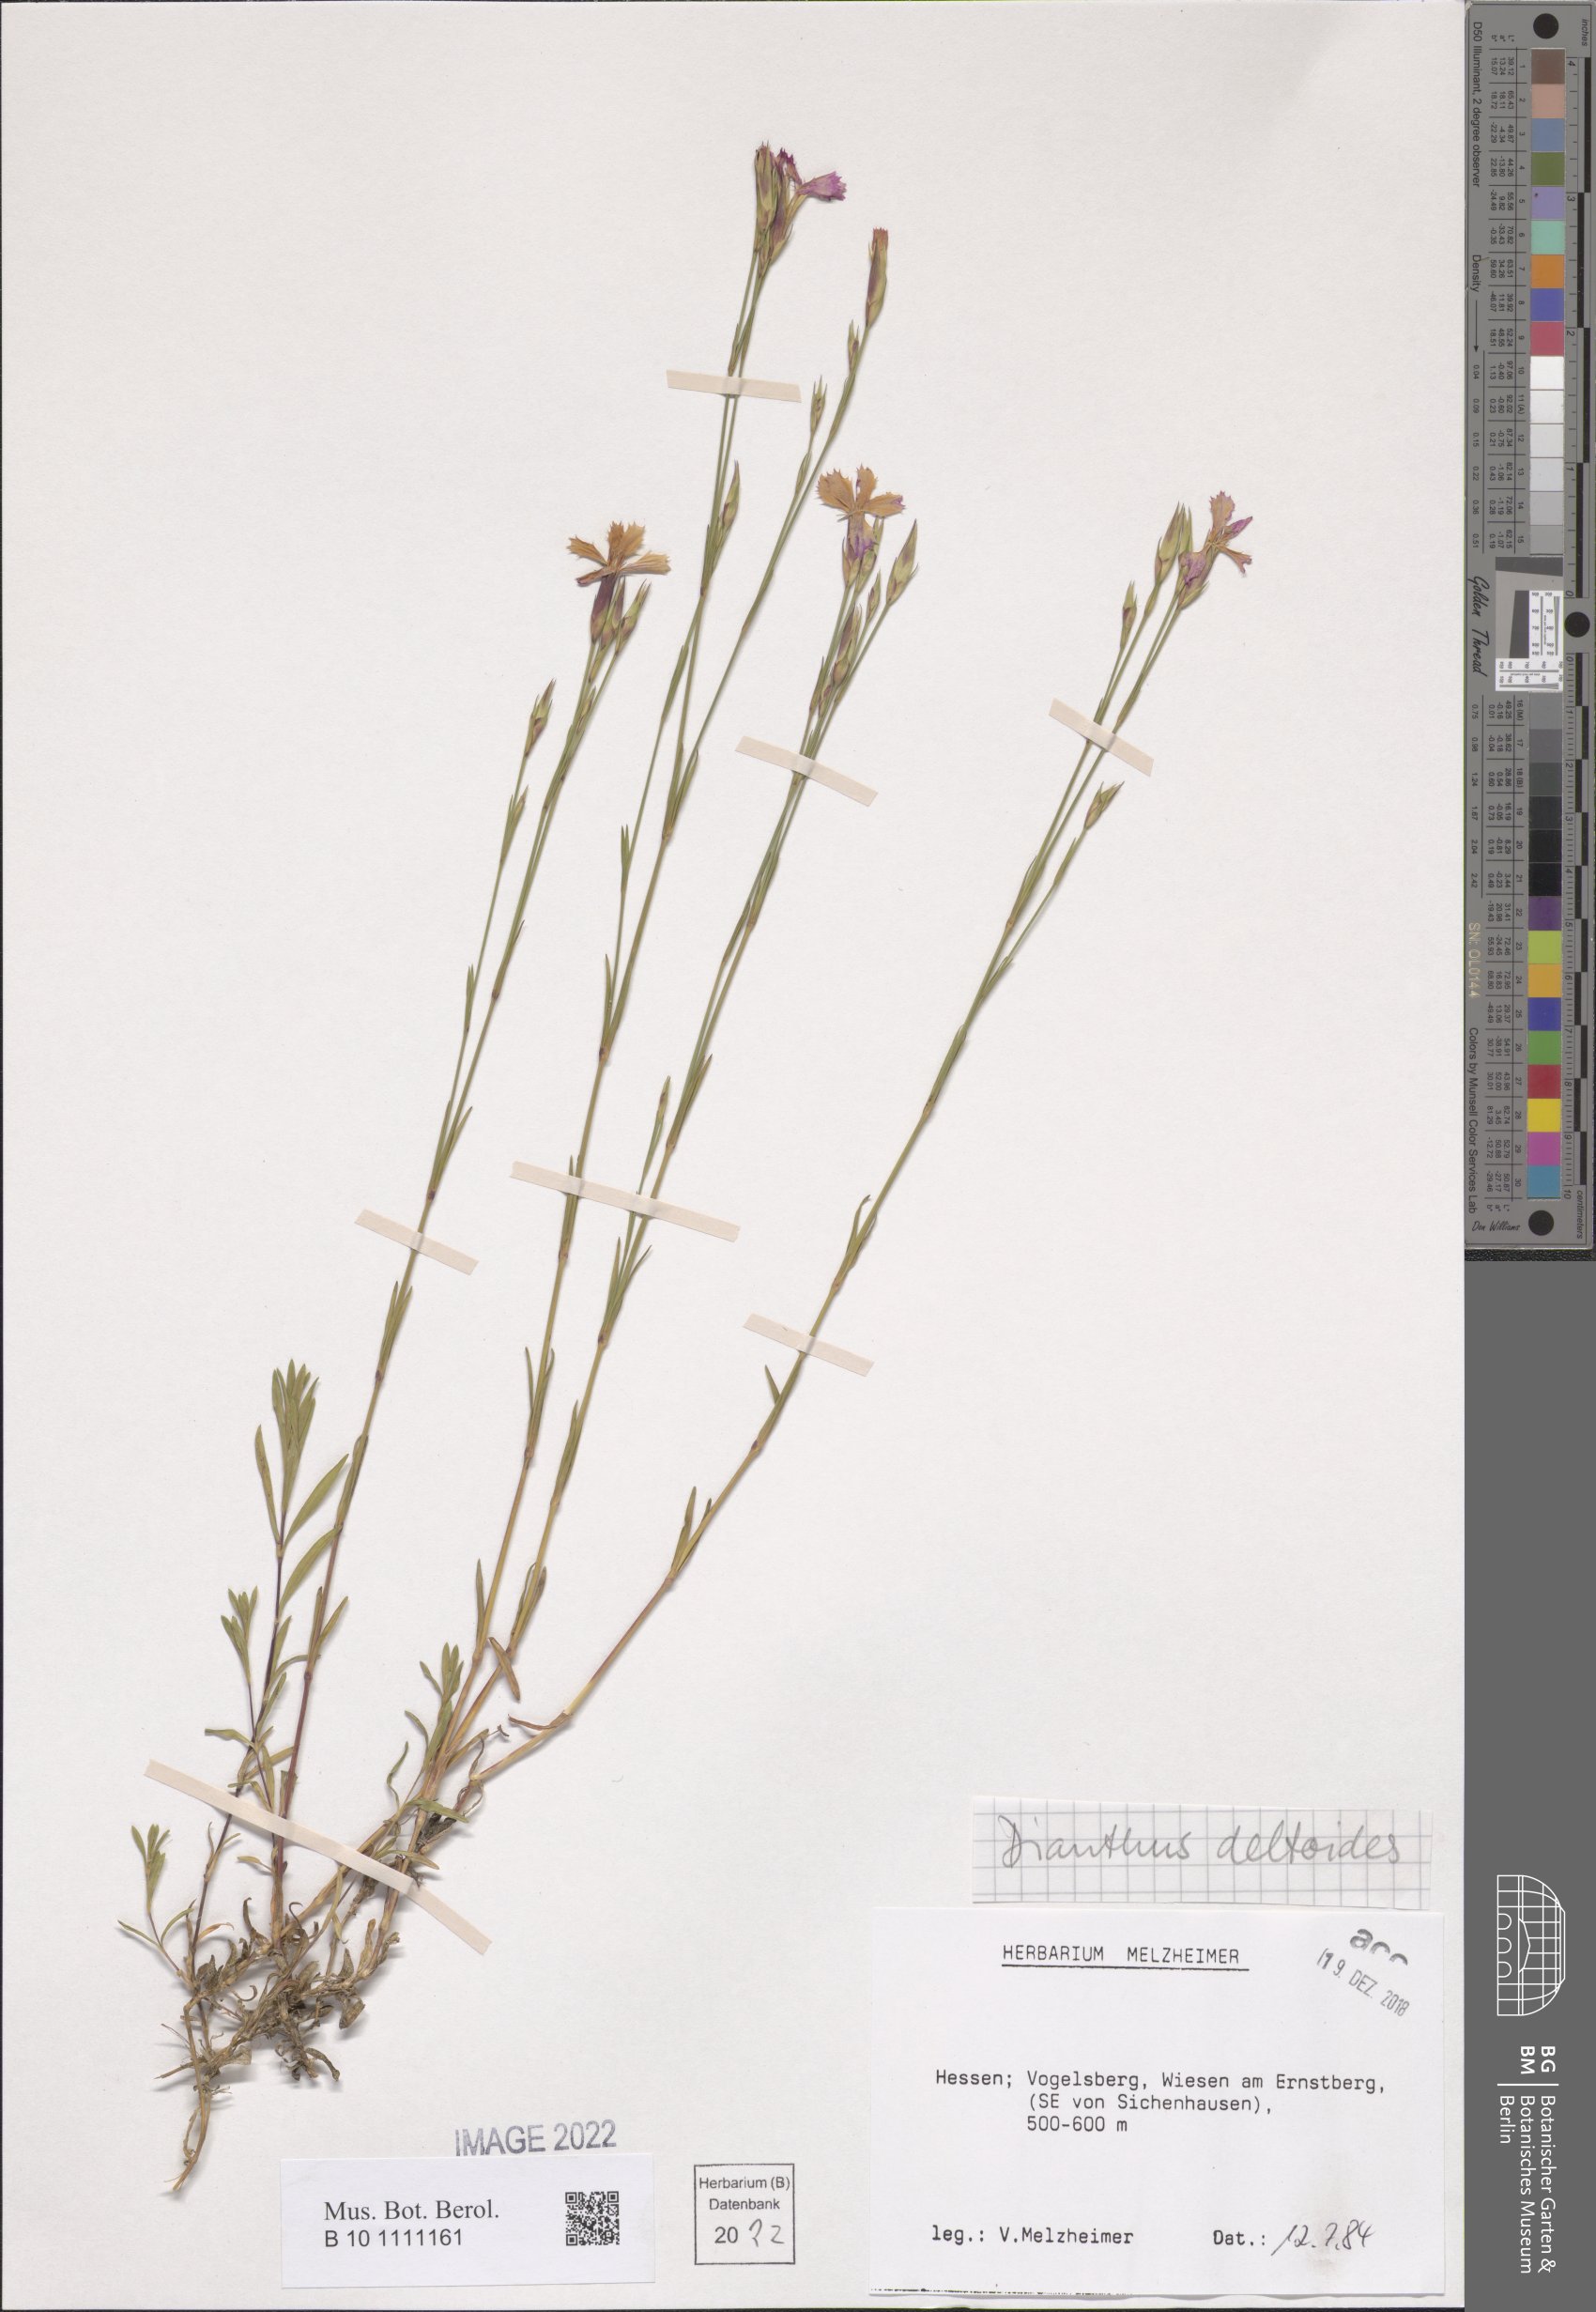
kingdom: Plantae
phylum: Tracheophyta
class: Magnoliopsida
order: Caryophyllales
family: Caryophyllaceae
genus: Dianthus
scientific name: Dianthus deltoides
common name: Maiden pink
